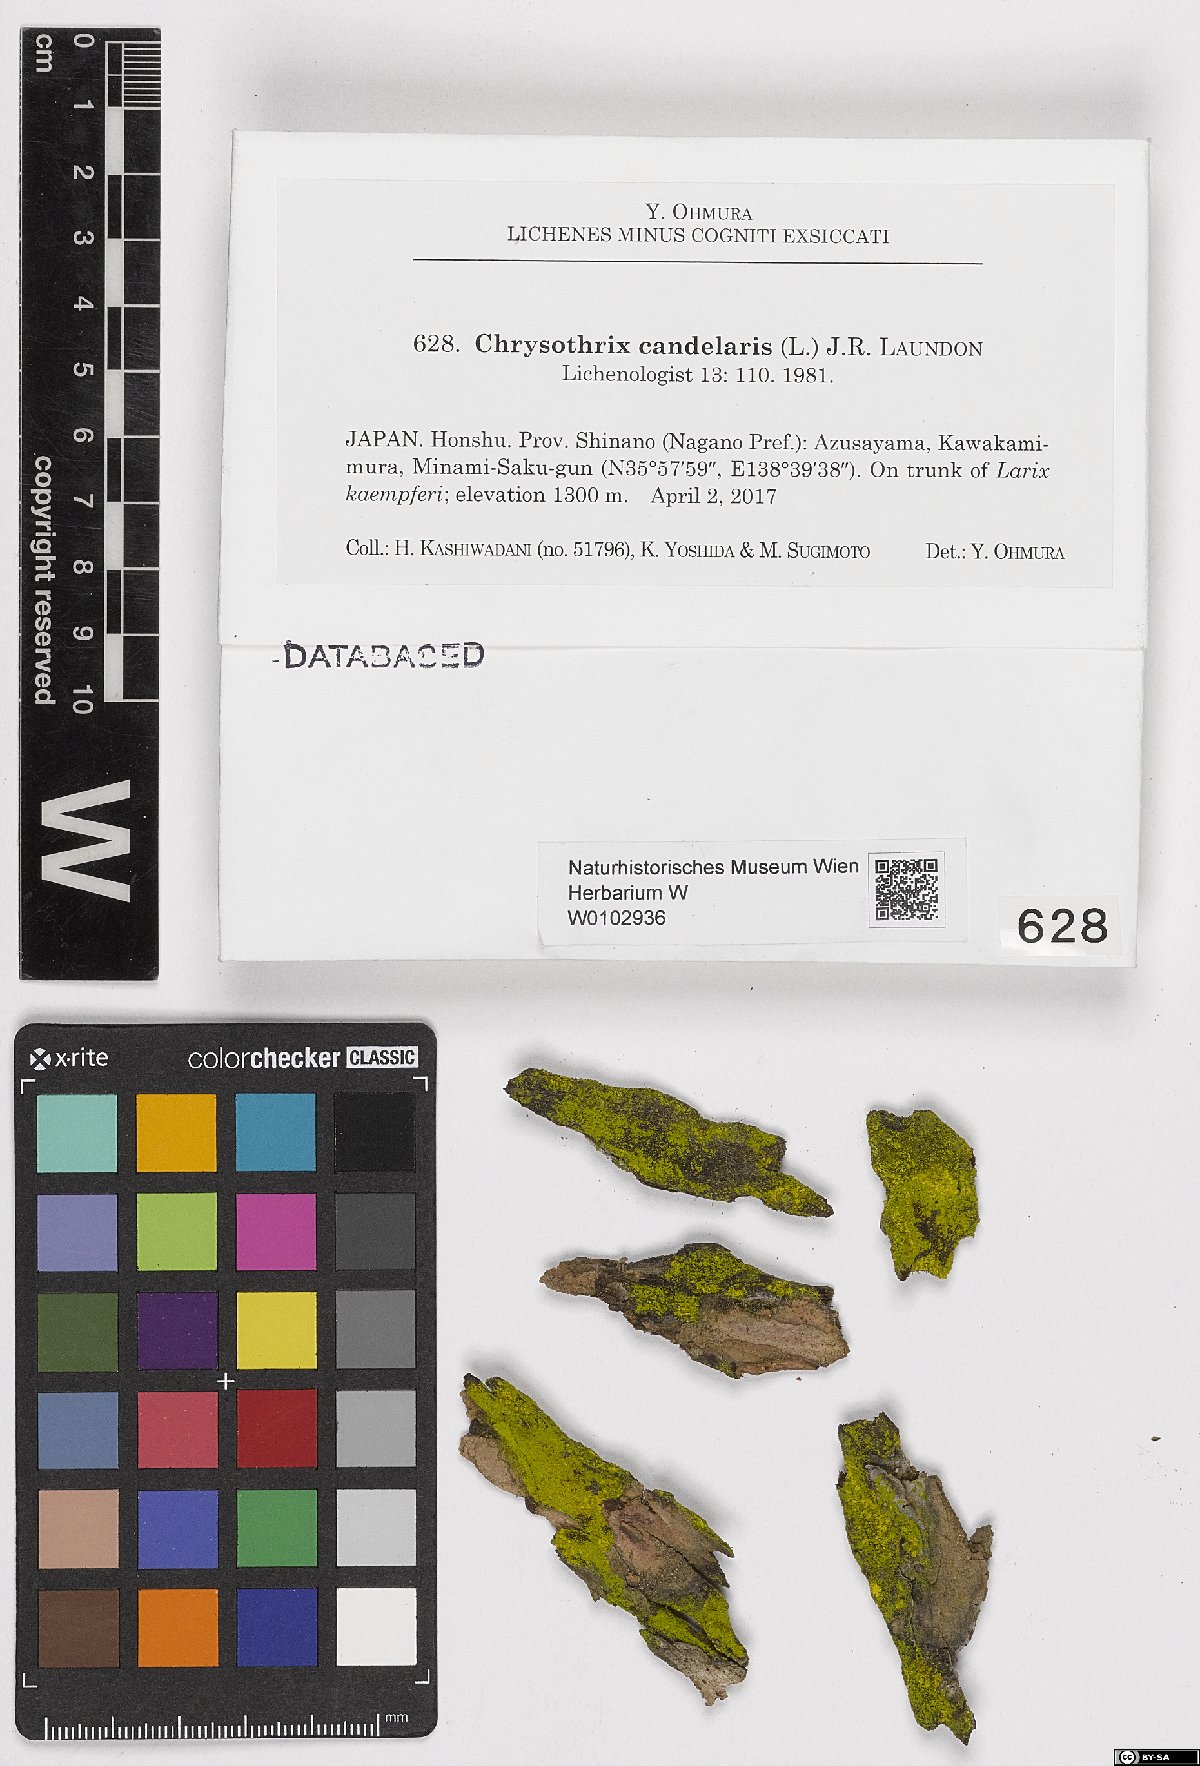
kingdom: Fungi
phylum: Ascomycota
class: Arthoniomycetes
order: Arthoniales
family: Chrysotrichaceae
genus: Chrysothrix
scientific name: Chrysothrix candelaris
